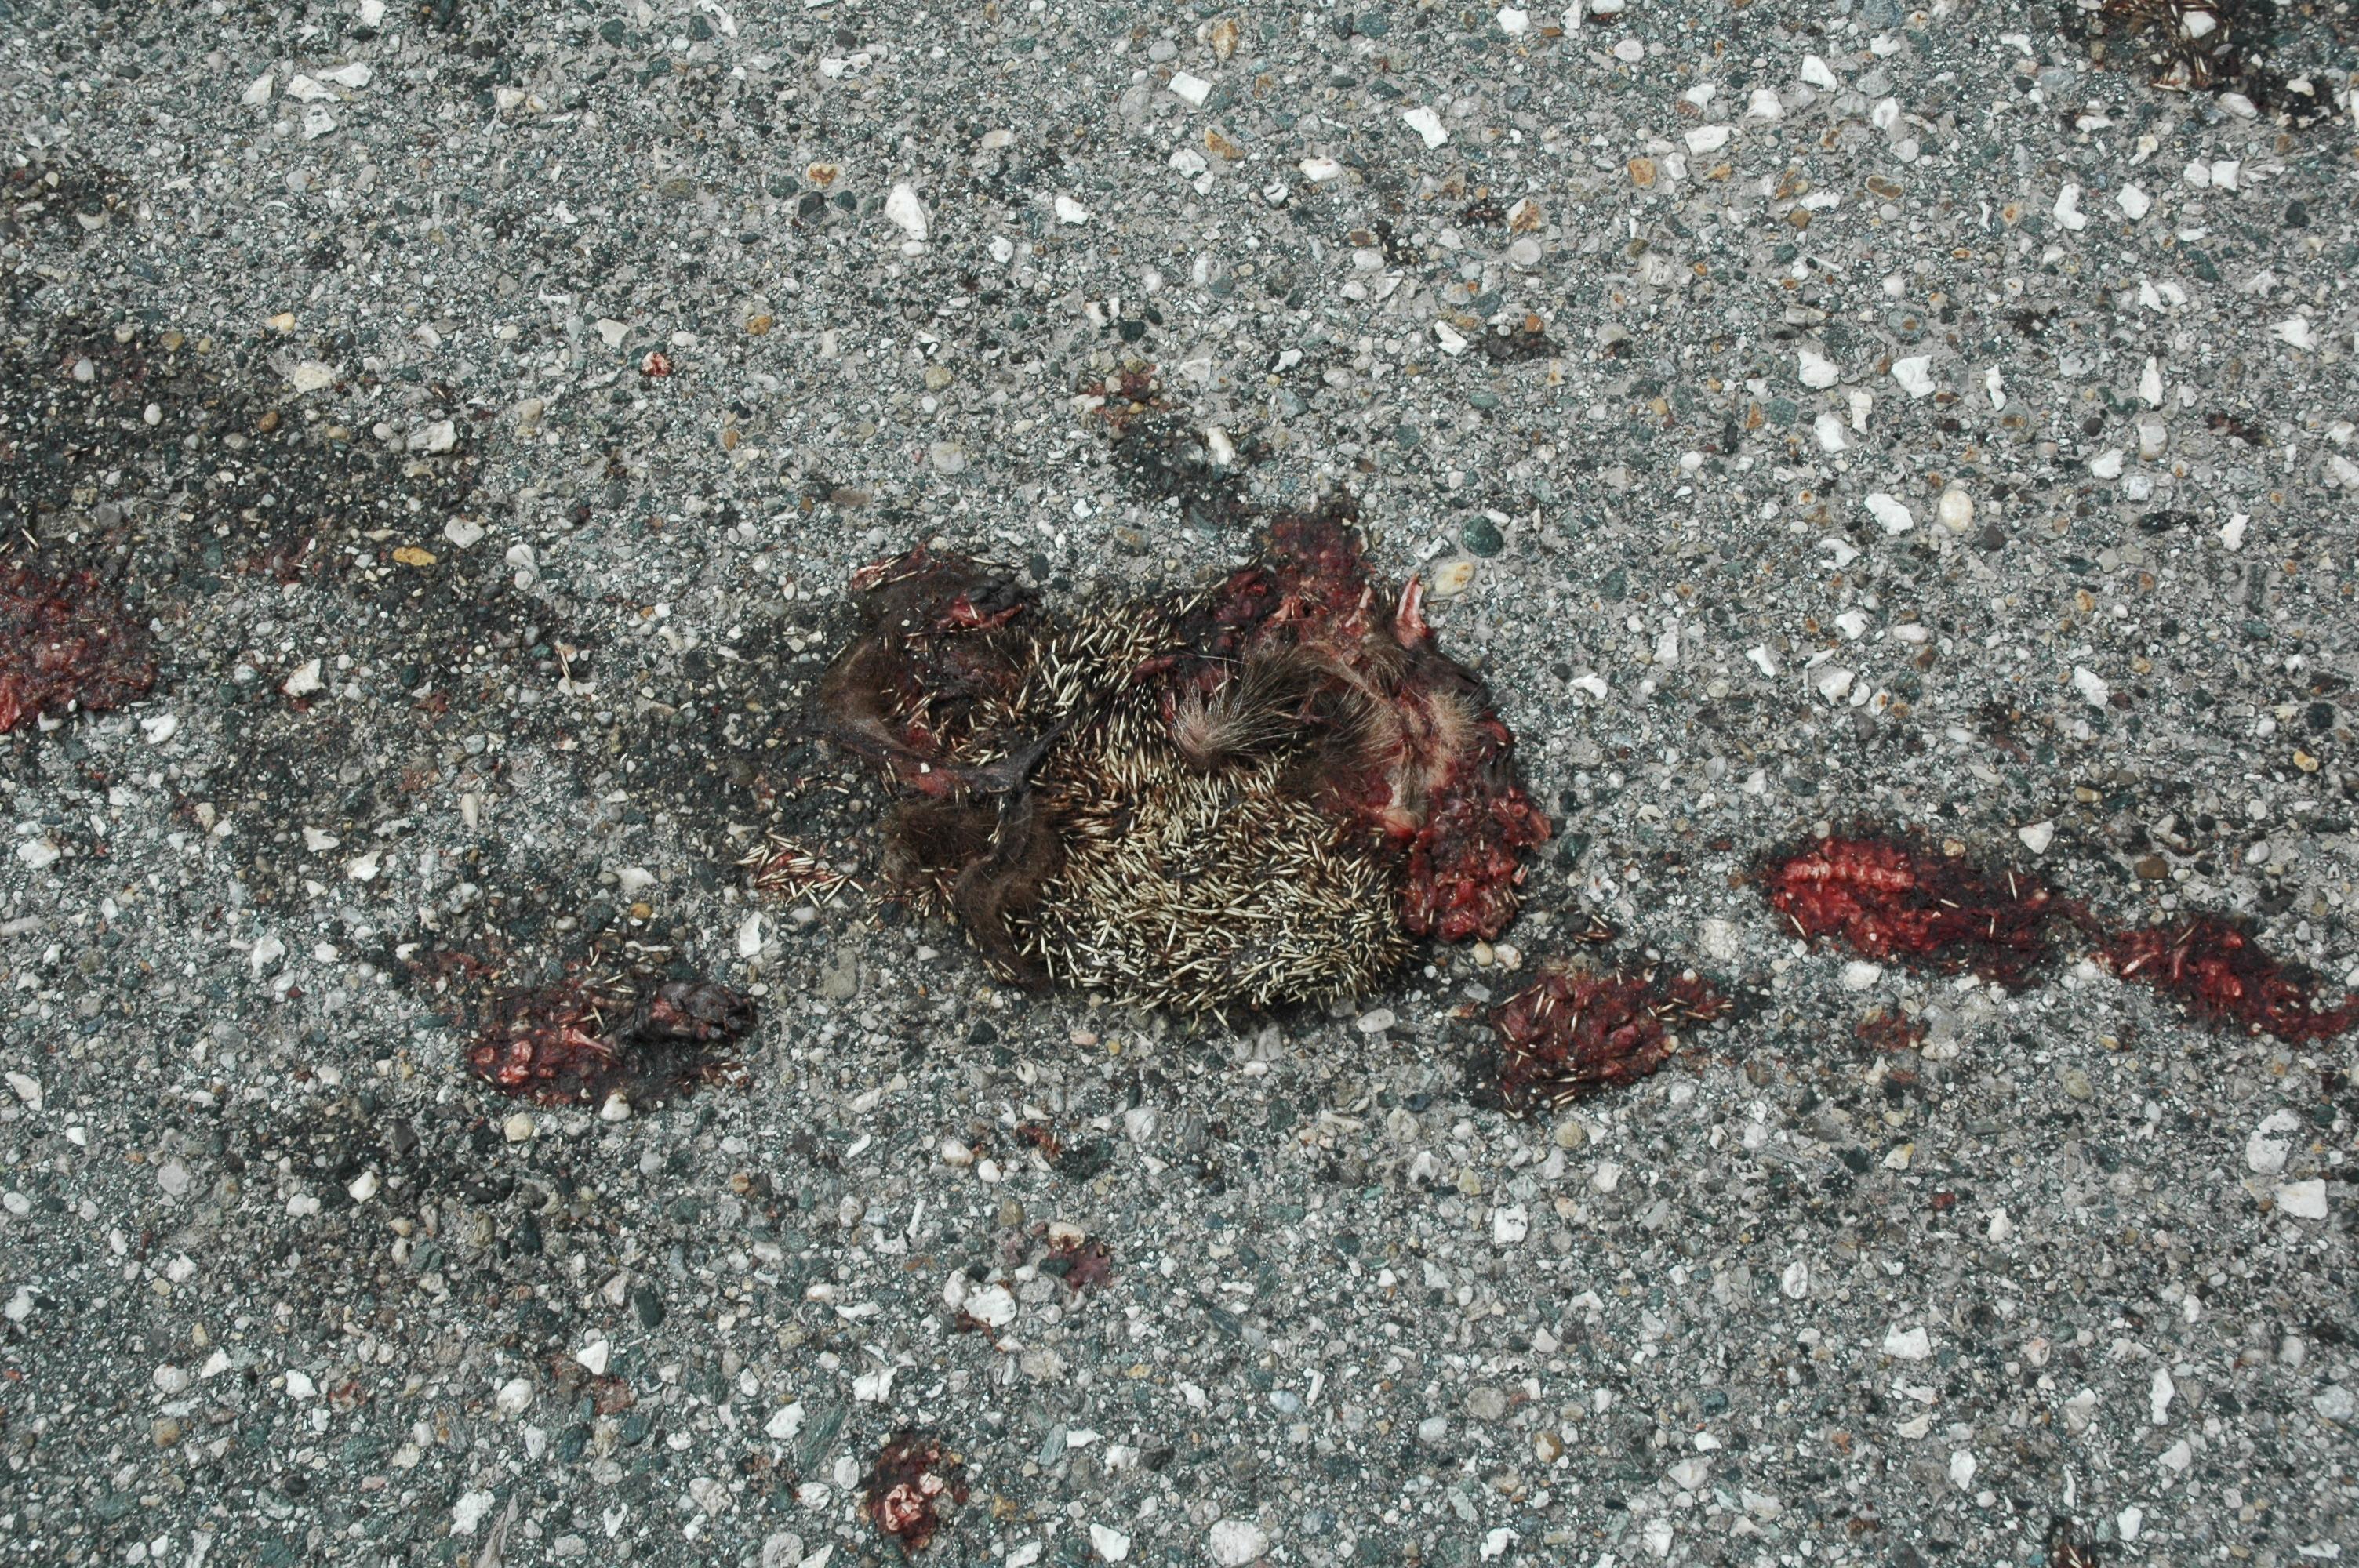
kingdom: Animalia
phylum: Chordata
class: Mammalia
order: Erinaceomorpha
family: Erinaceidae
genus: Erinaceus
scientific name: Erinaceus
